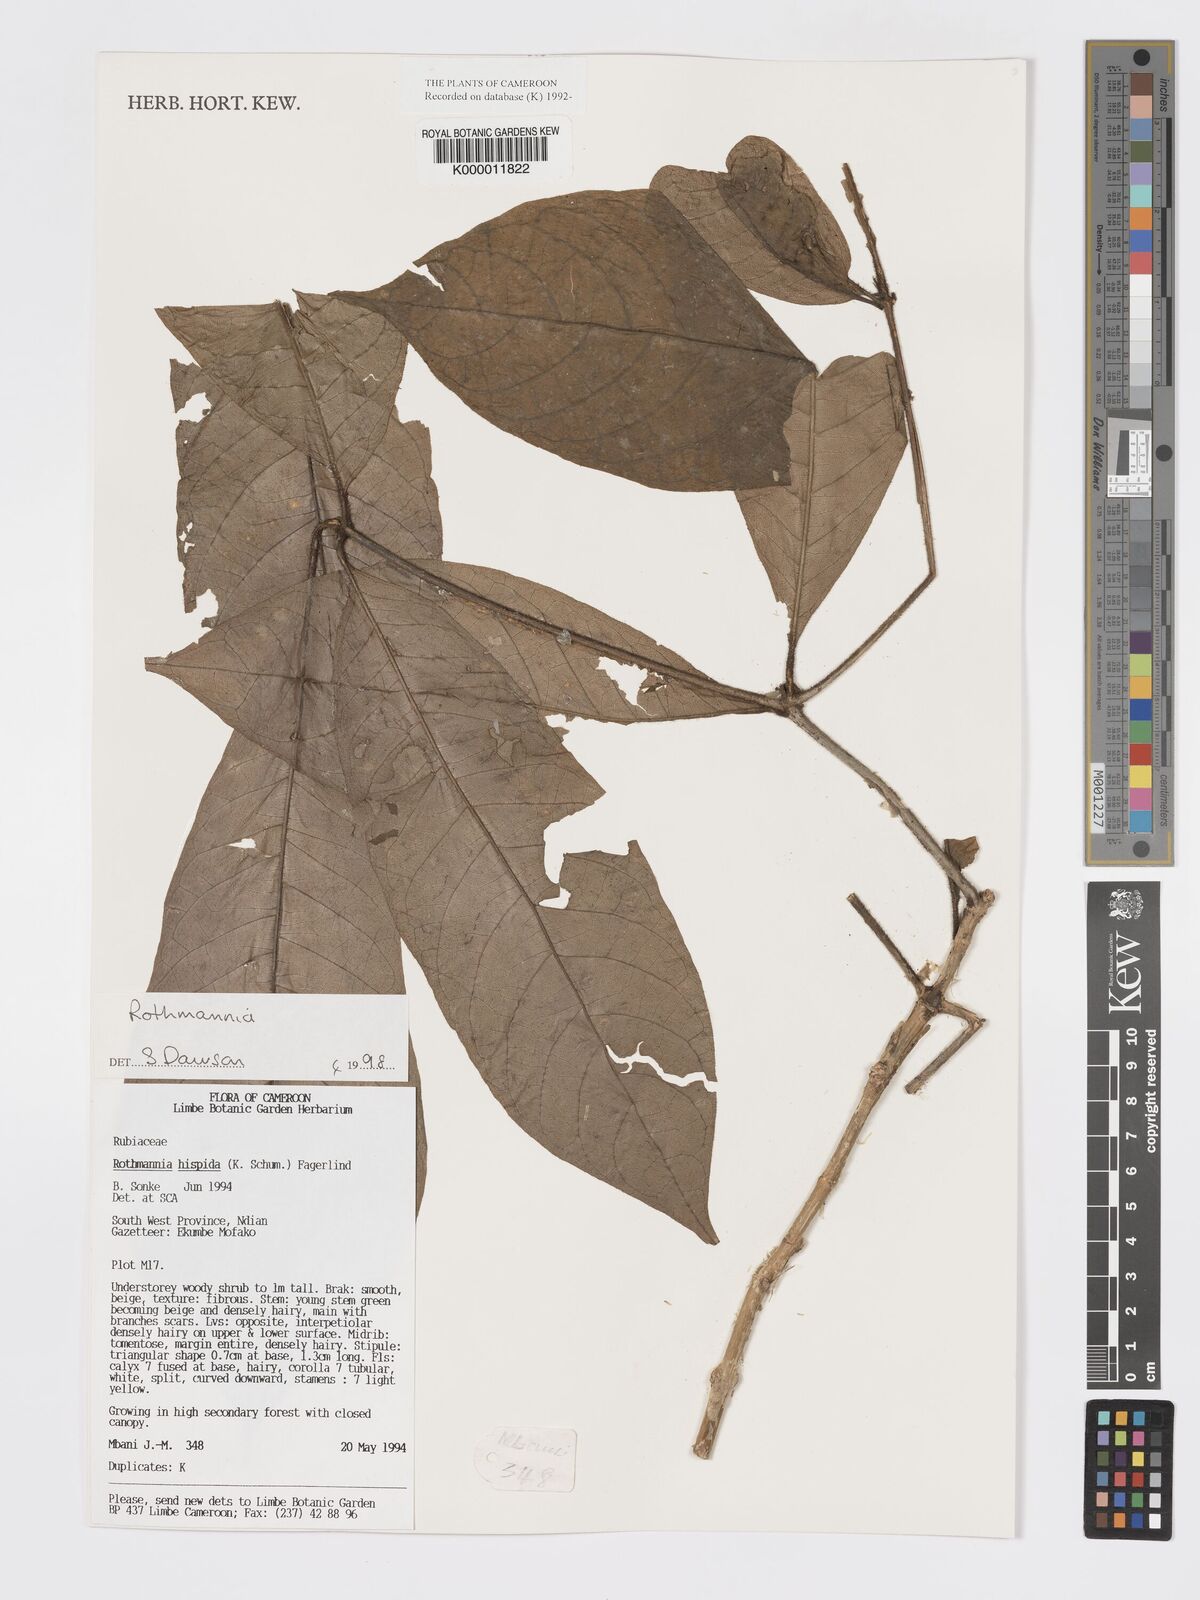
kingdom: Plantae
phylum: Tracheophyta
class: Magnoliopsida
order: Gentianales
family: Rubiaceae
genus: Rothmannia
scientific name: Rothmannia hispida
